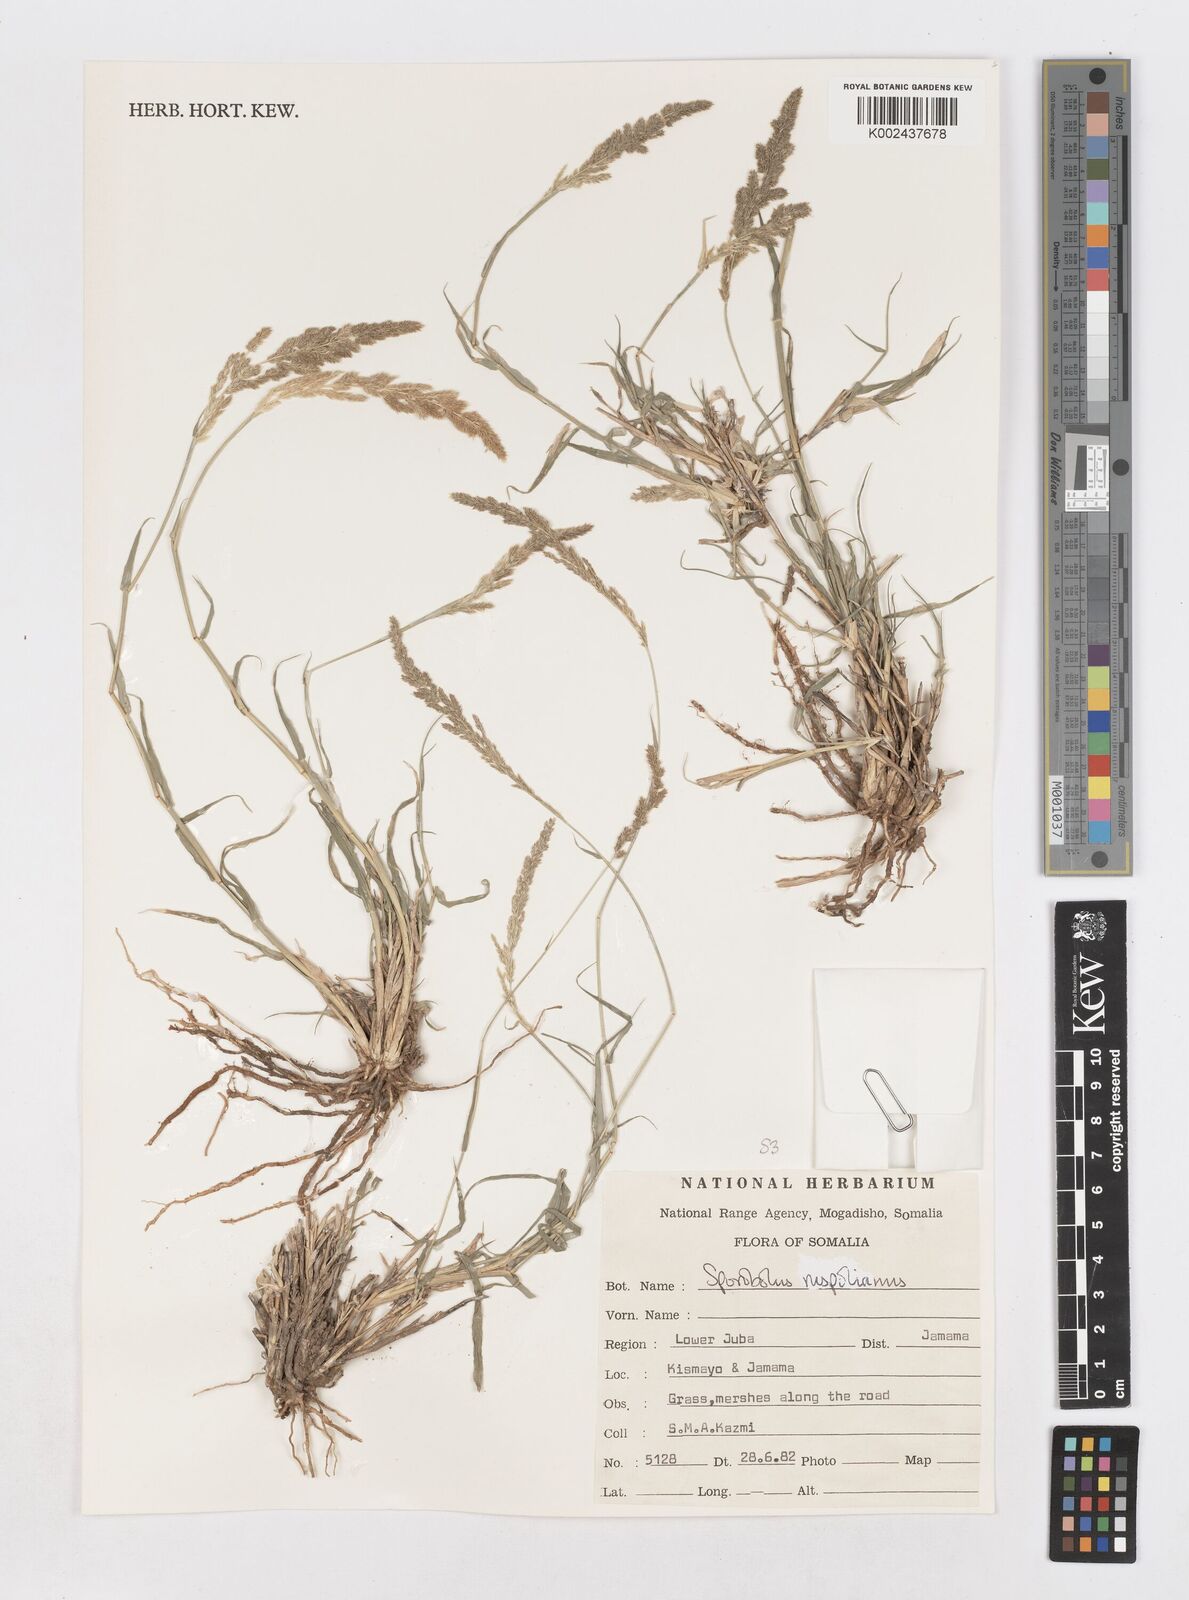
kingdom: Plantae
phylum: Tracheophyta
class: Liliopsida
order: Poales
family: Poaceae
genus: Sporobolus
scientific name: Sporobolus helvolus
